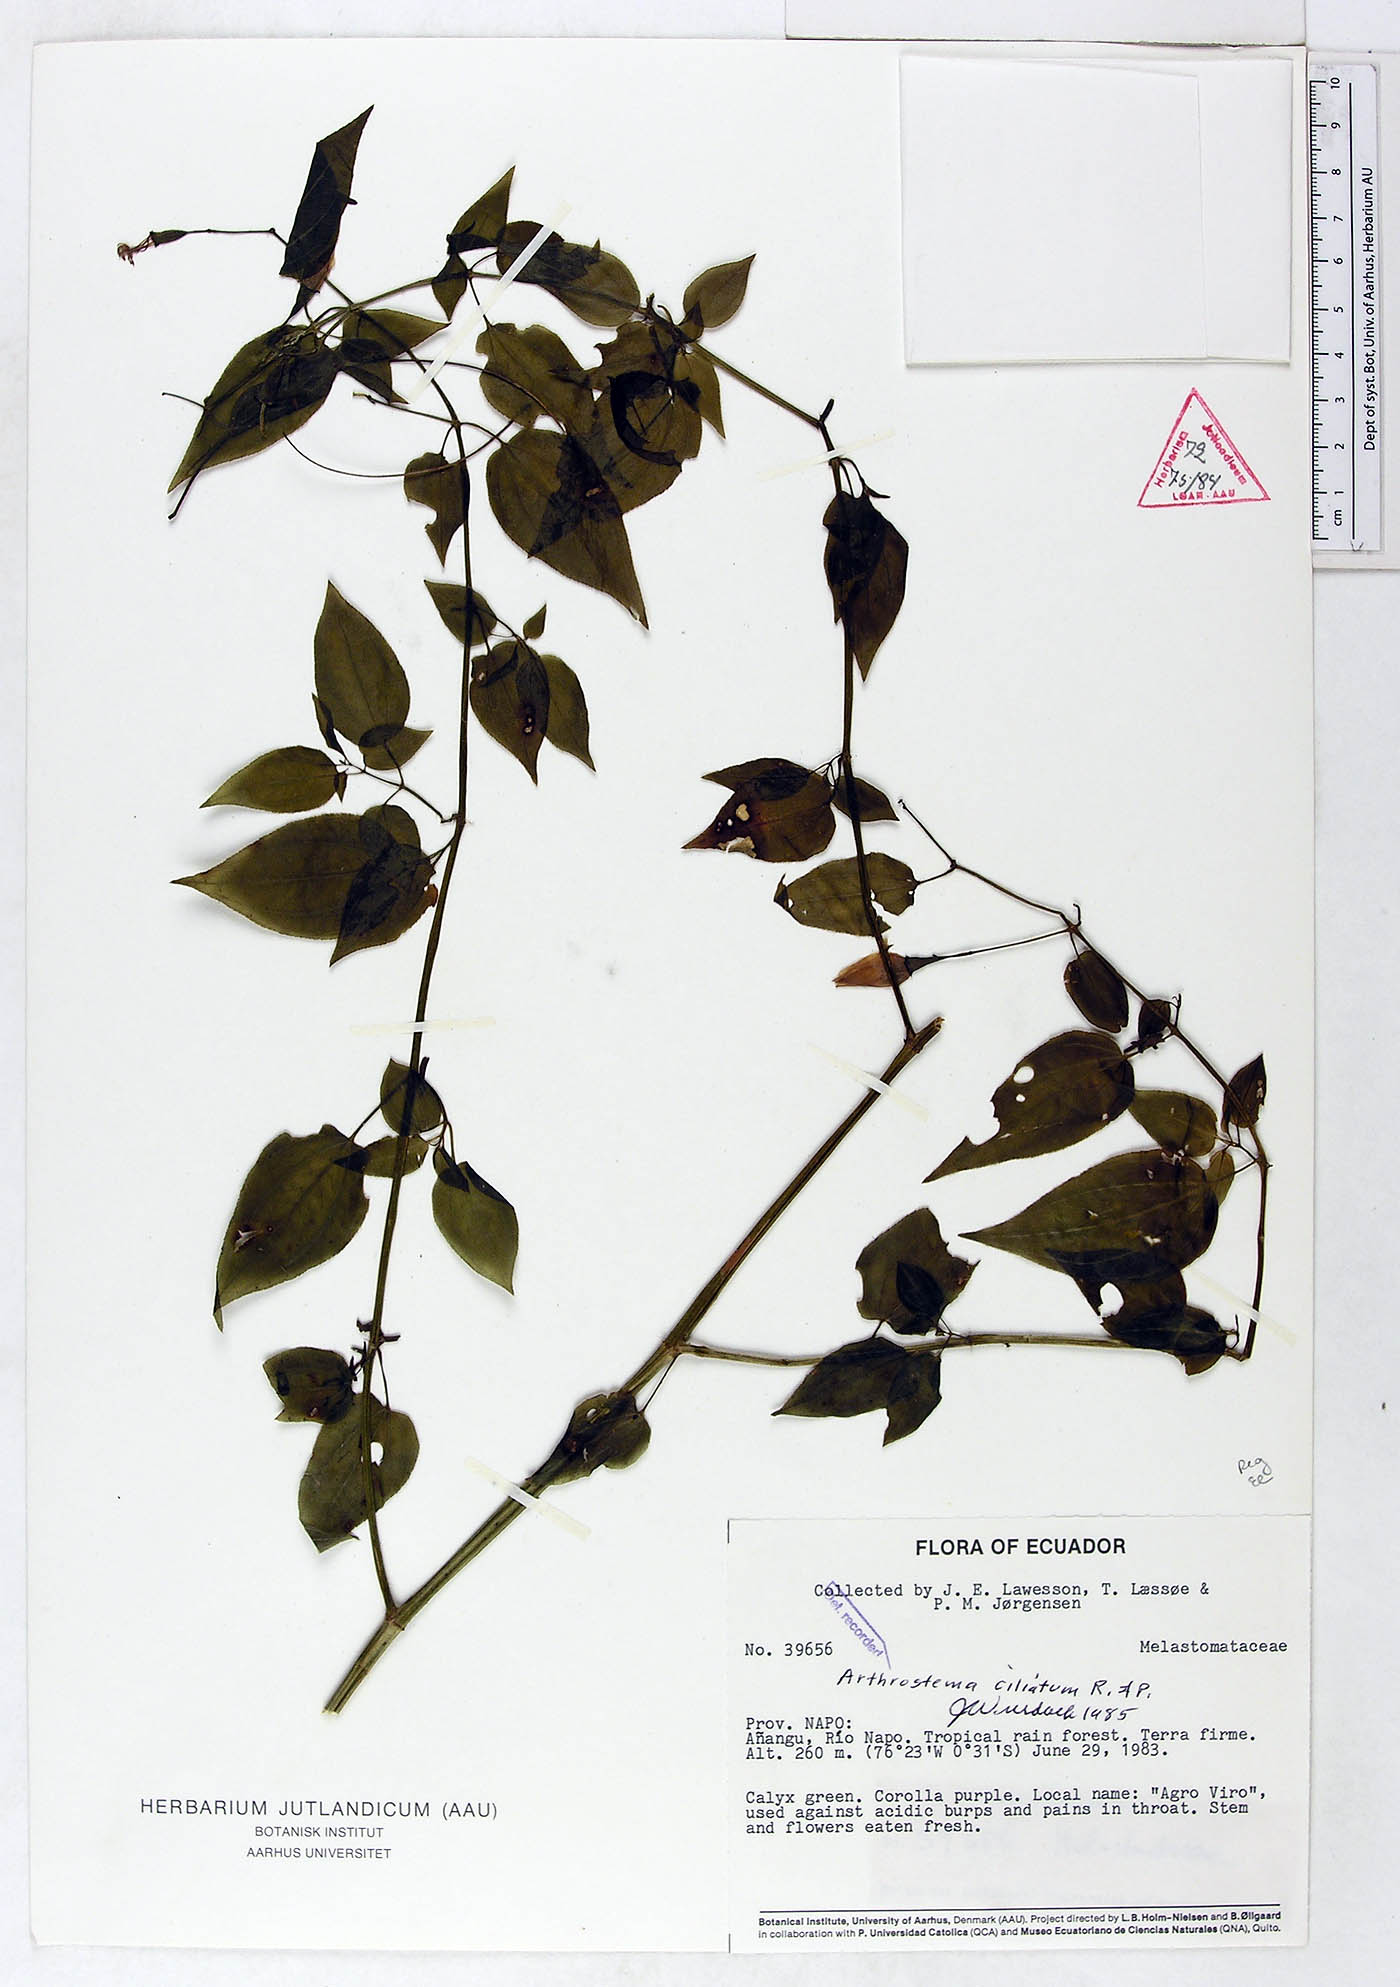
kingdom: Plantae
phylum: Tracheophyta
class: Magnoliopsida
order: Myrtales
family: Melastomataceae
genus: Arthrostemma
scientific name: Arthrostemma ciliatum
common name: Everblooming eavender
